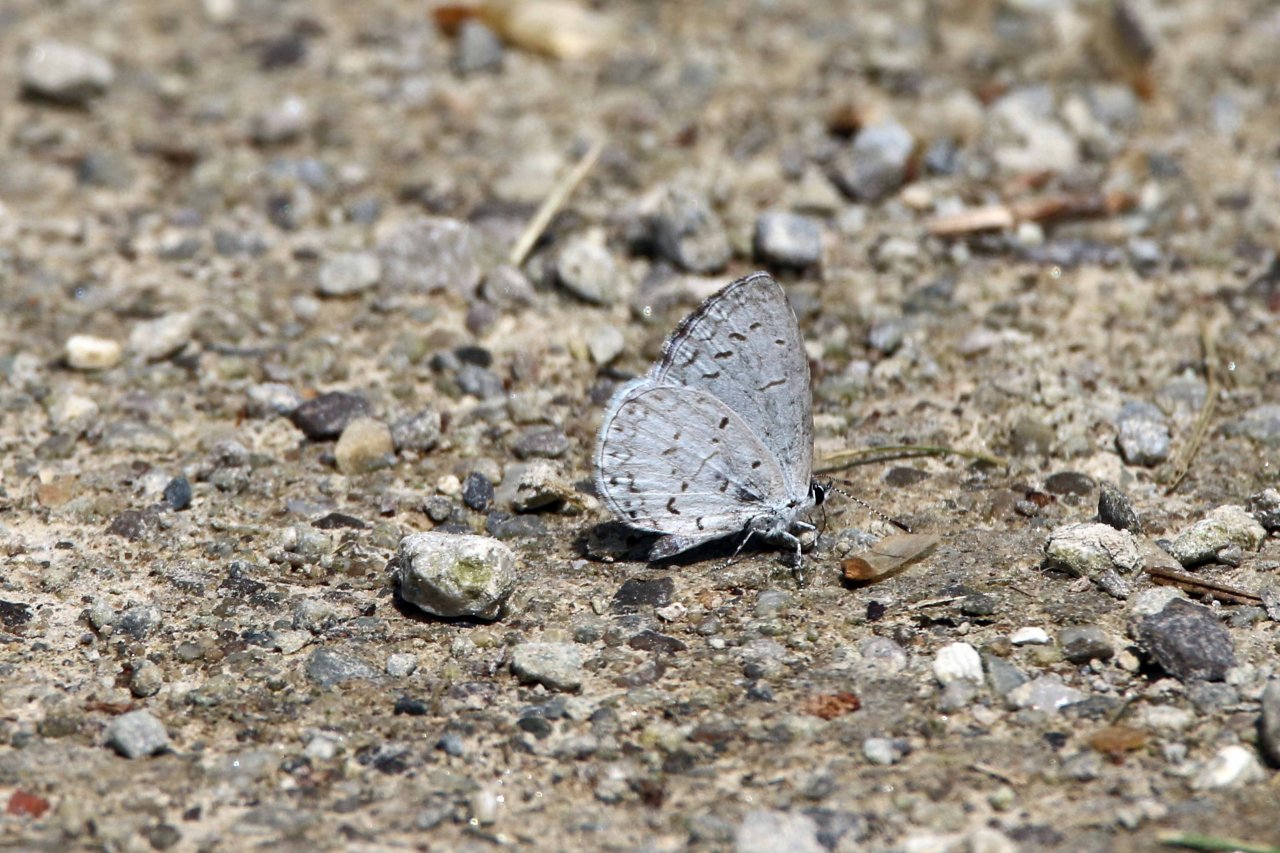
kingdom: Animalia
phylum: Arthropoda
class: Insecta
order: Lepidoptera
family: Lycaenidae
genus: Cyaniris
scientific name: Cyaniris neglecta
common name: Summer Azure
